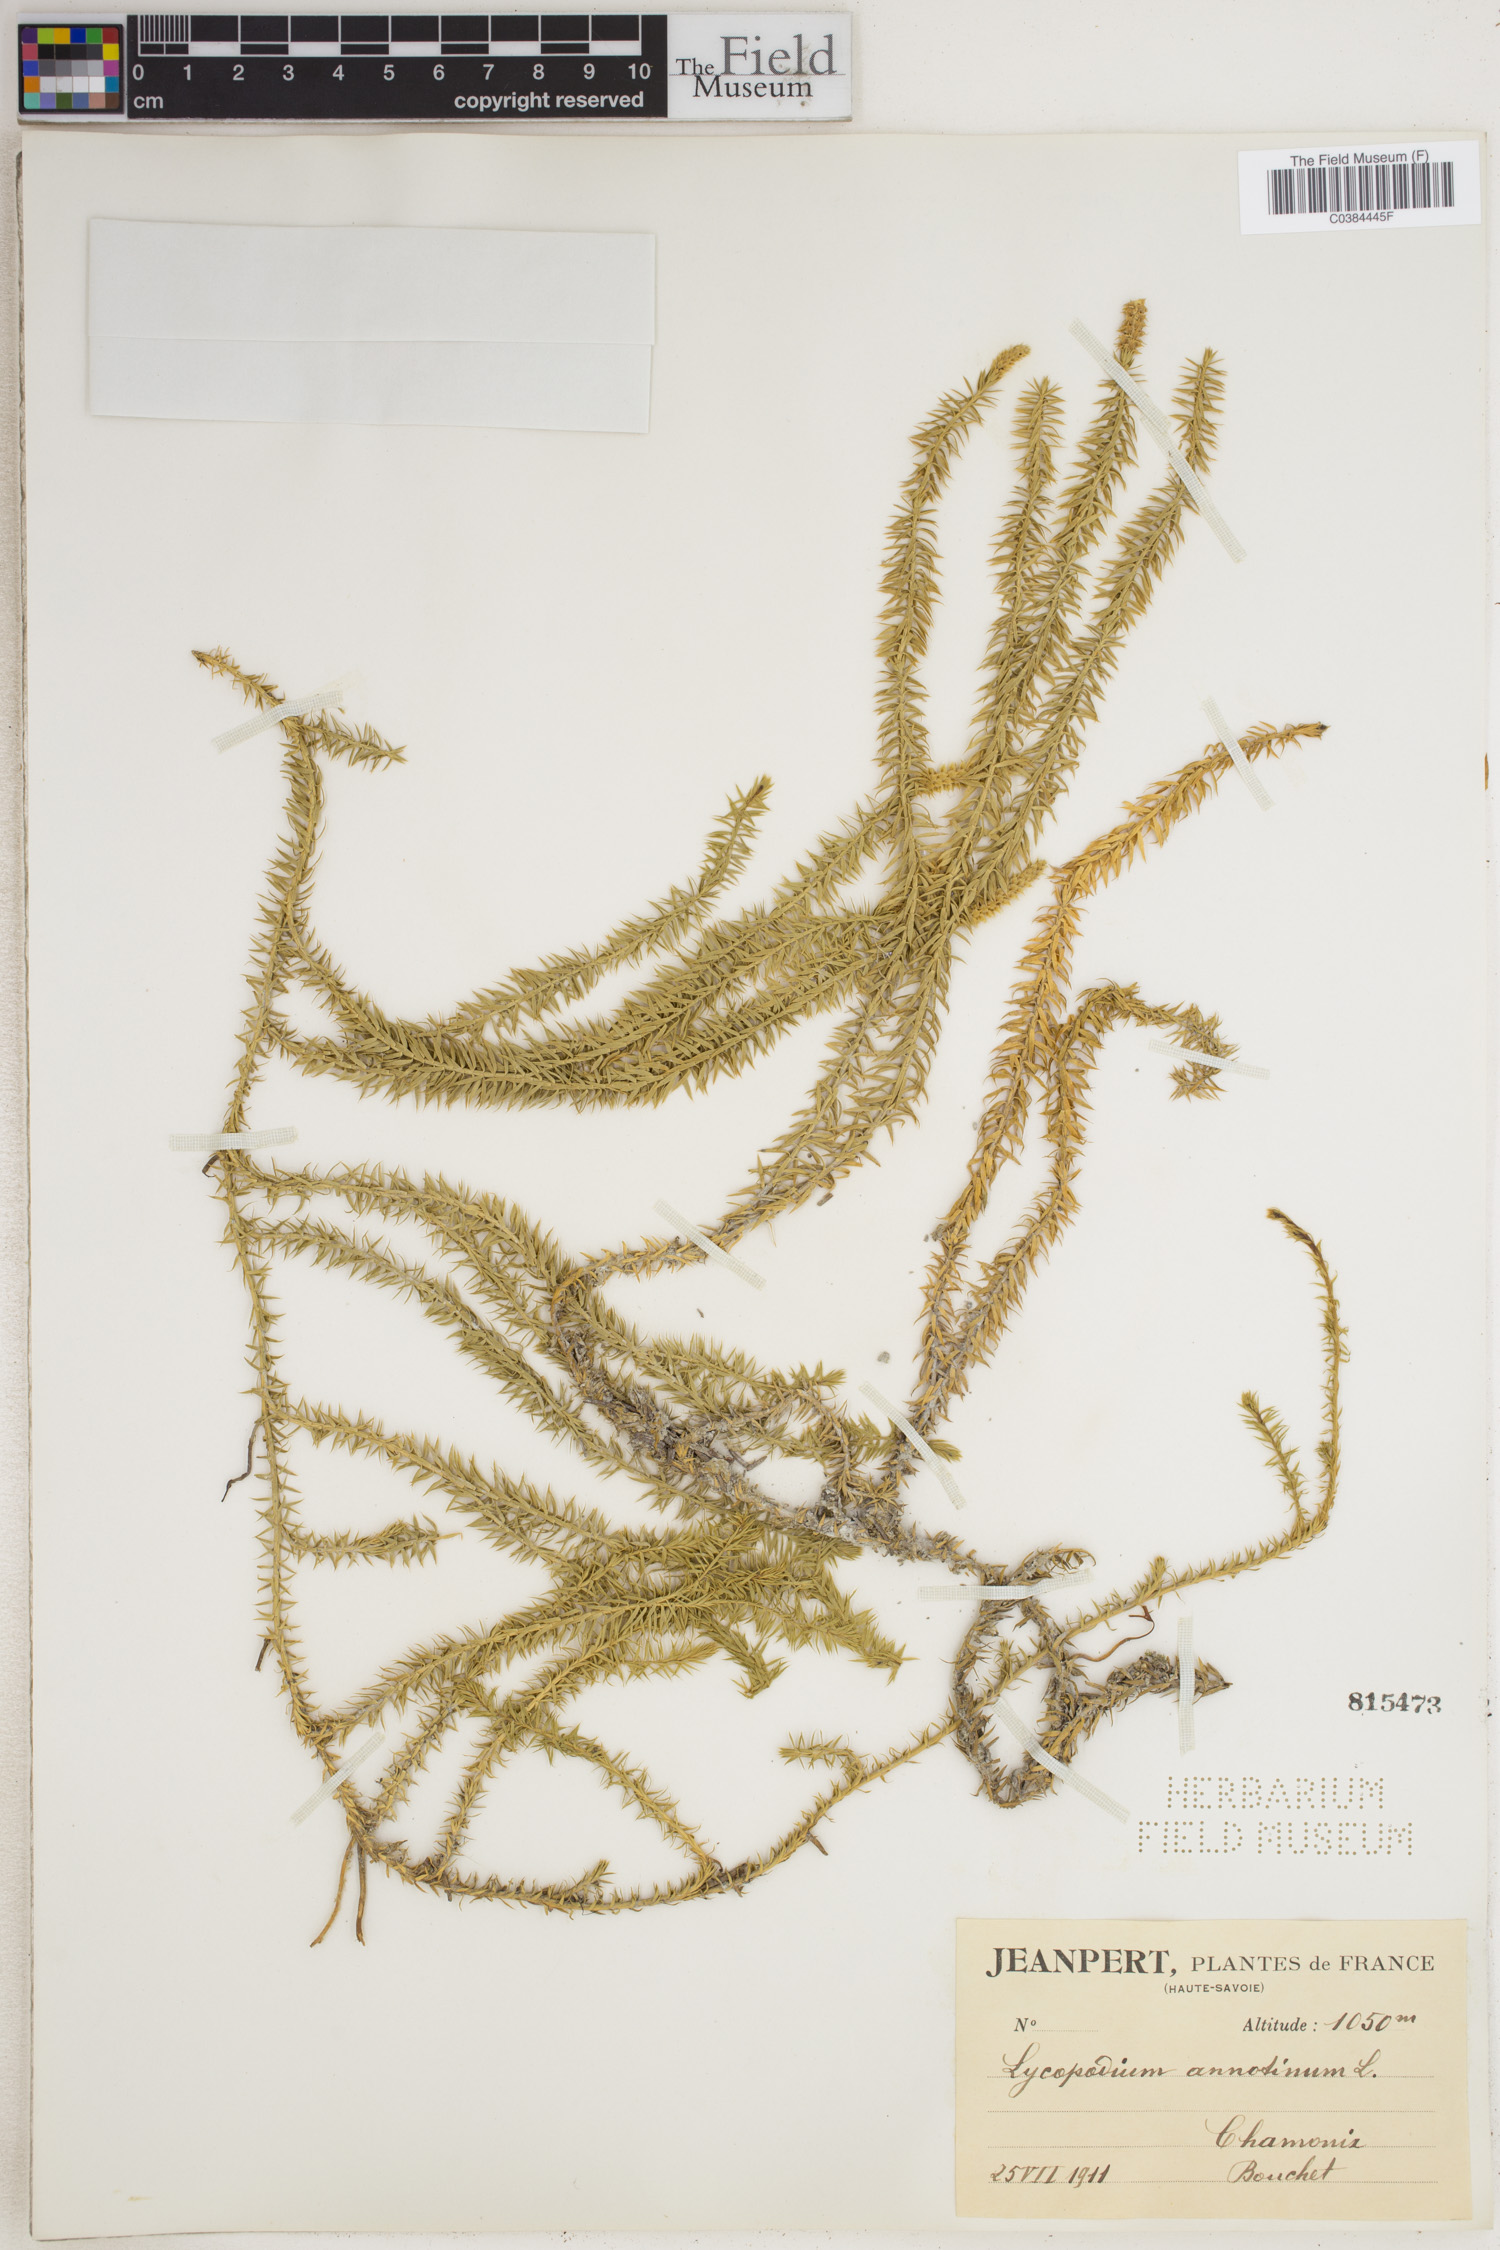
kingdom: Plantae
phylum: Tracheophyta
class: Lycopodiopsida
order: Lycopodiales
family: Lycopodiaceae
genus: Spinulum
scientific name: Spinulum annotinum
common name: Interrupted club-moss
